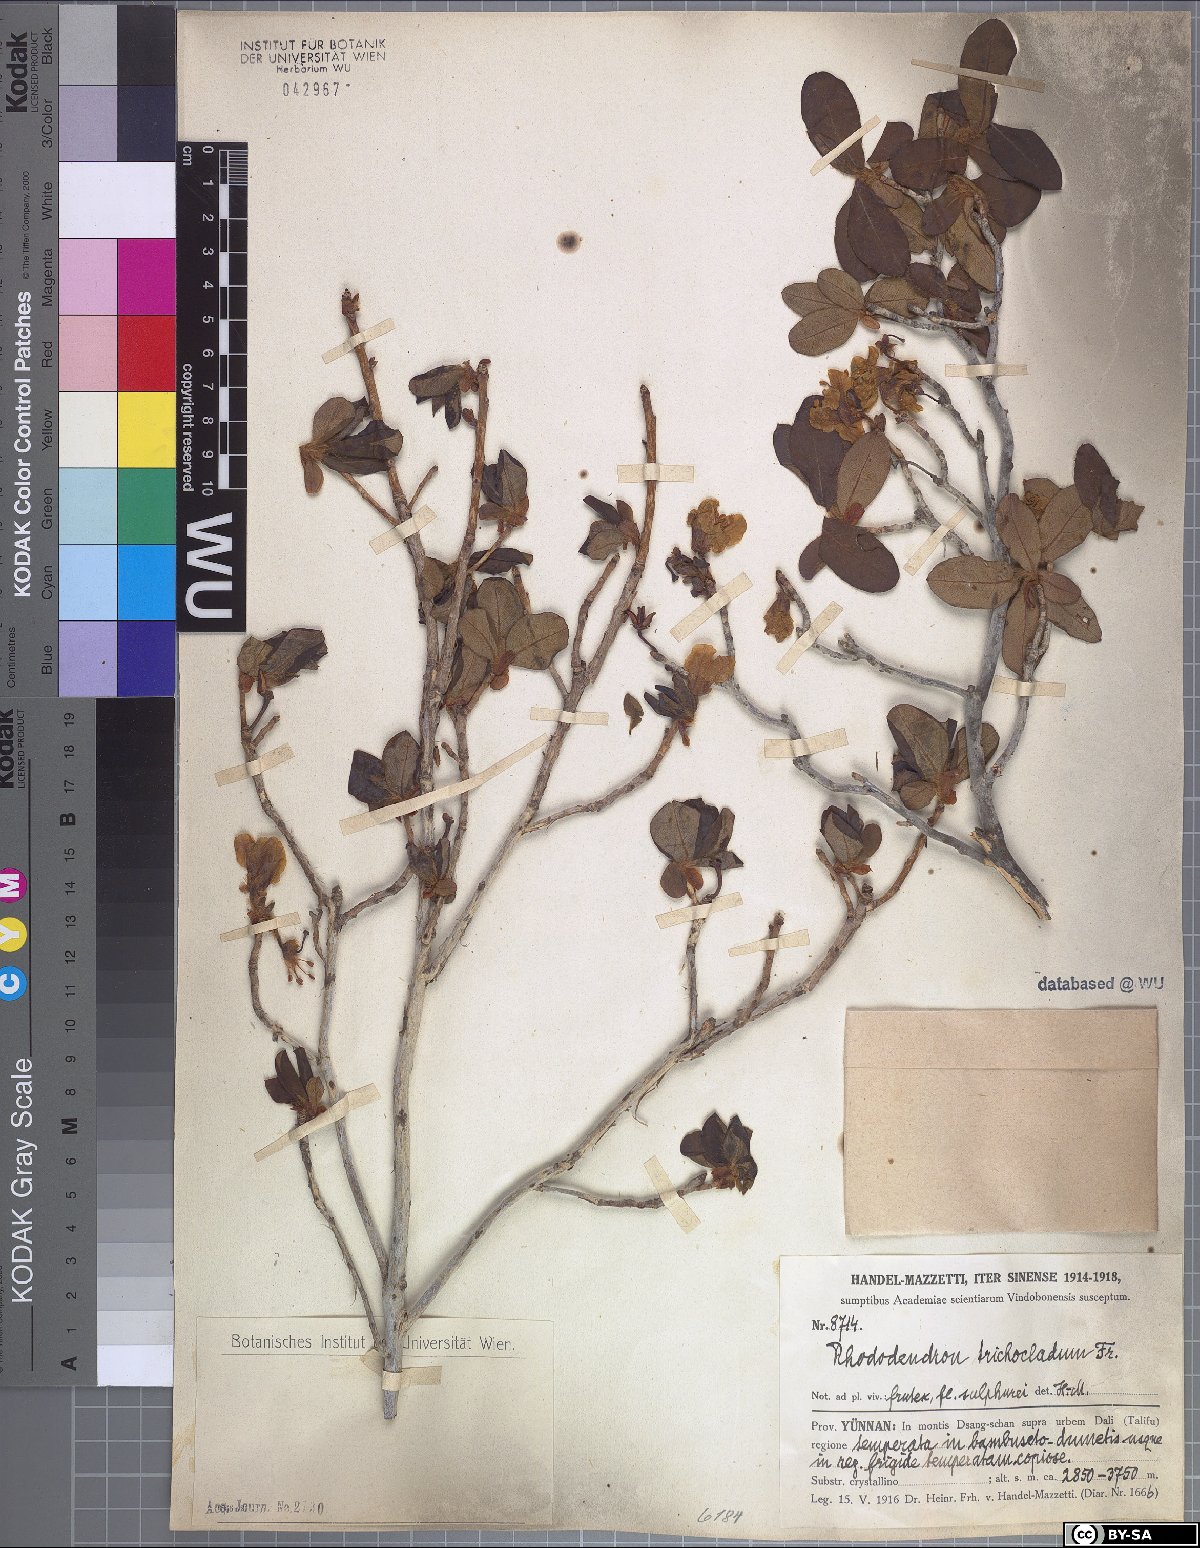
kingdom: Plantae
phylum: Tracheophyta
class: Magnoliopsida
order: Ericales
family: Ericaceae
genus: Rhododendron
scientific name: Rhododendron trichocladum
